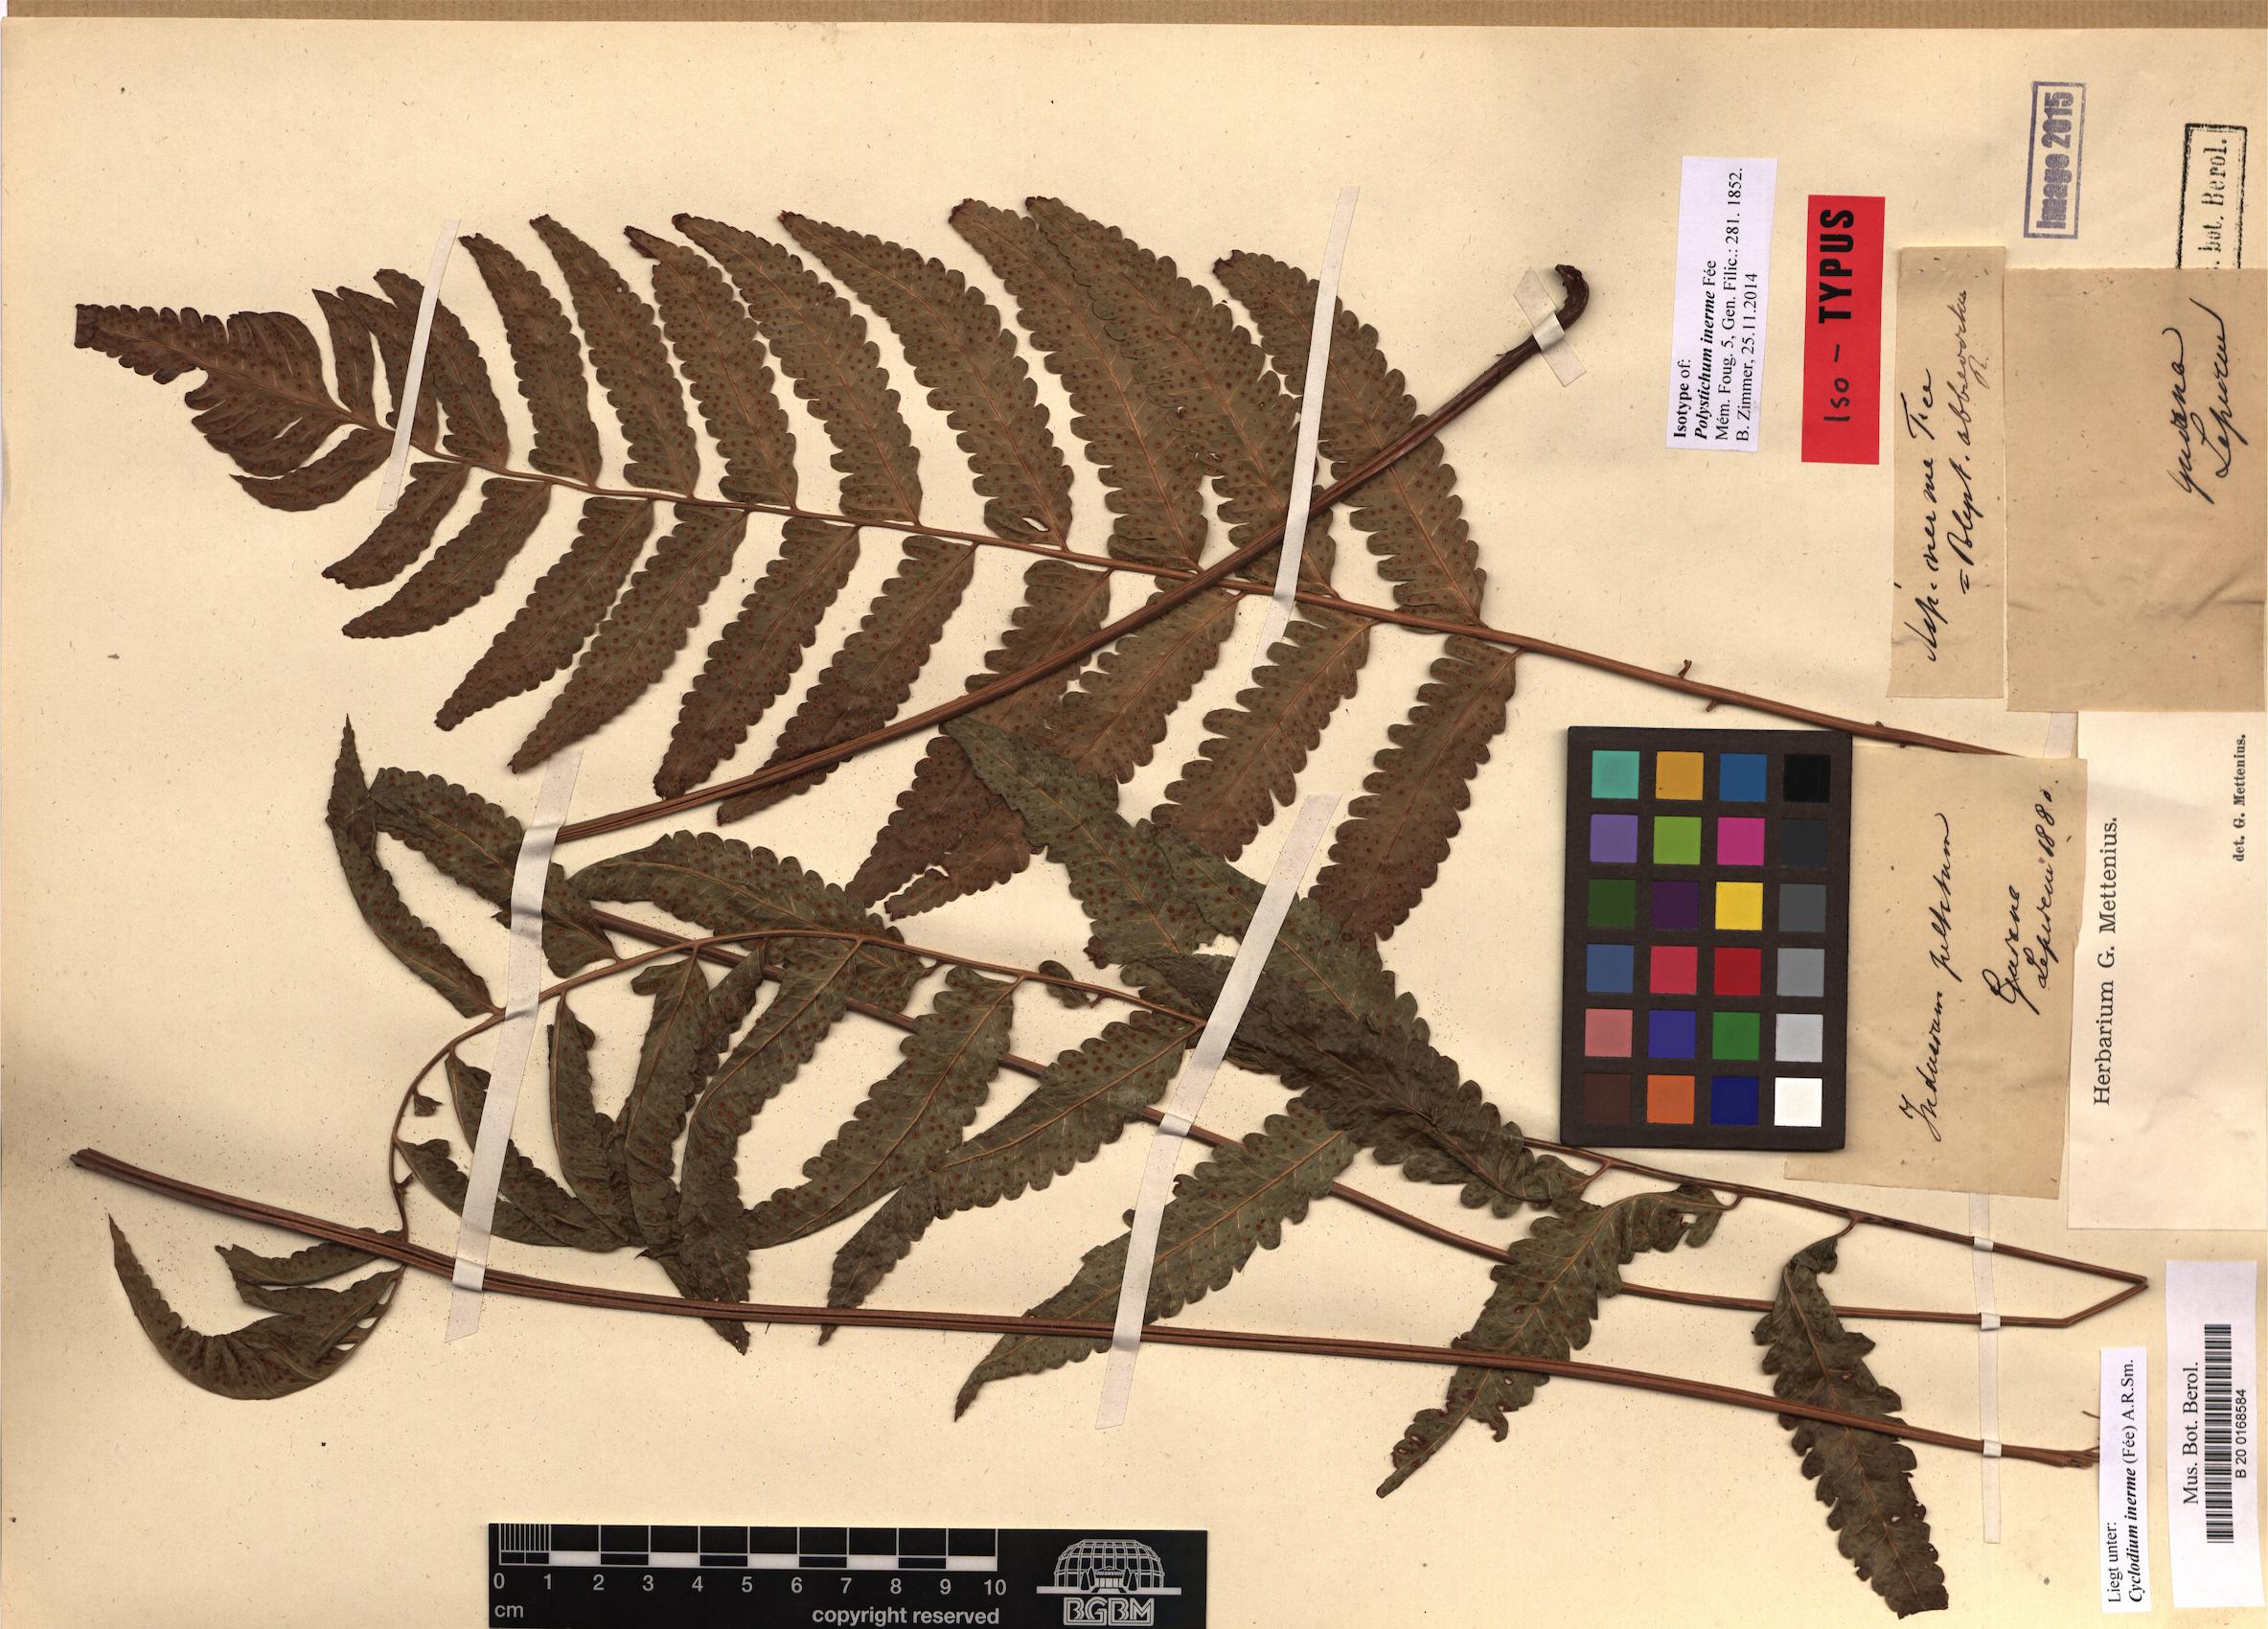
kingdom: Plantae
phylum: Tracheophyta
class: Polypodiopsida
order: Polypodiales
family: Dryopteridaceae
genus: Cyclodium
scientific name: Cyclodium inerme
